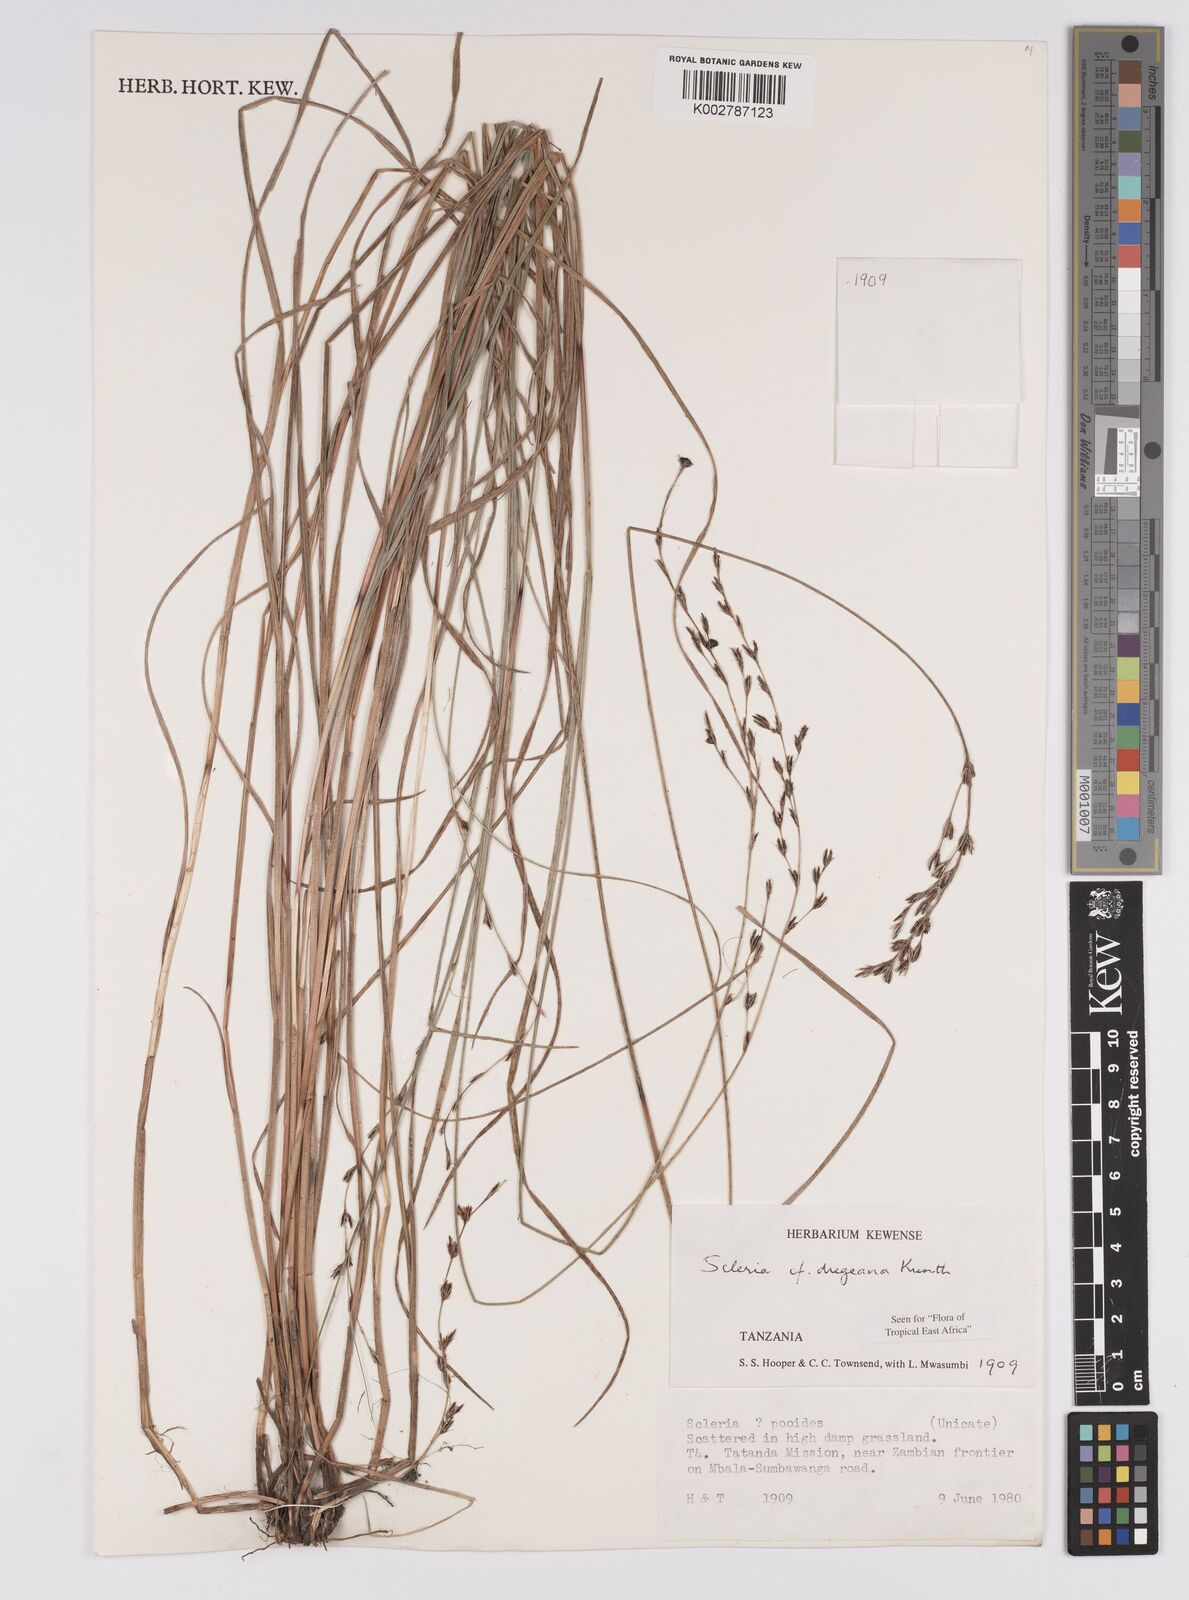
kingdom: Plantae
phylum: Tracheophyta
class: Liliopsida
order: Poales
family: Cyperaceae
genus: Scleria
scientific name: Scleria dregeana
